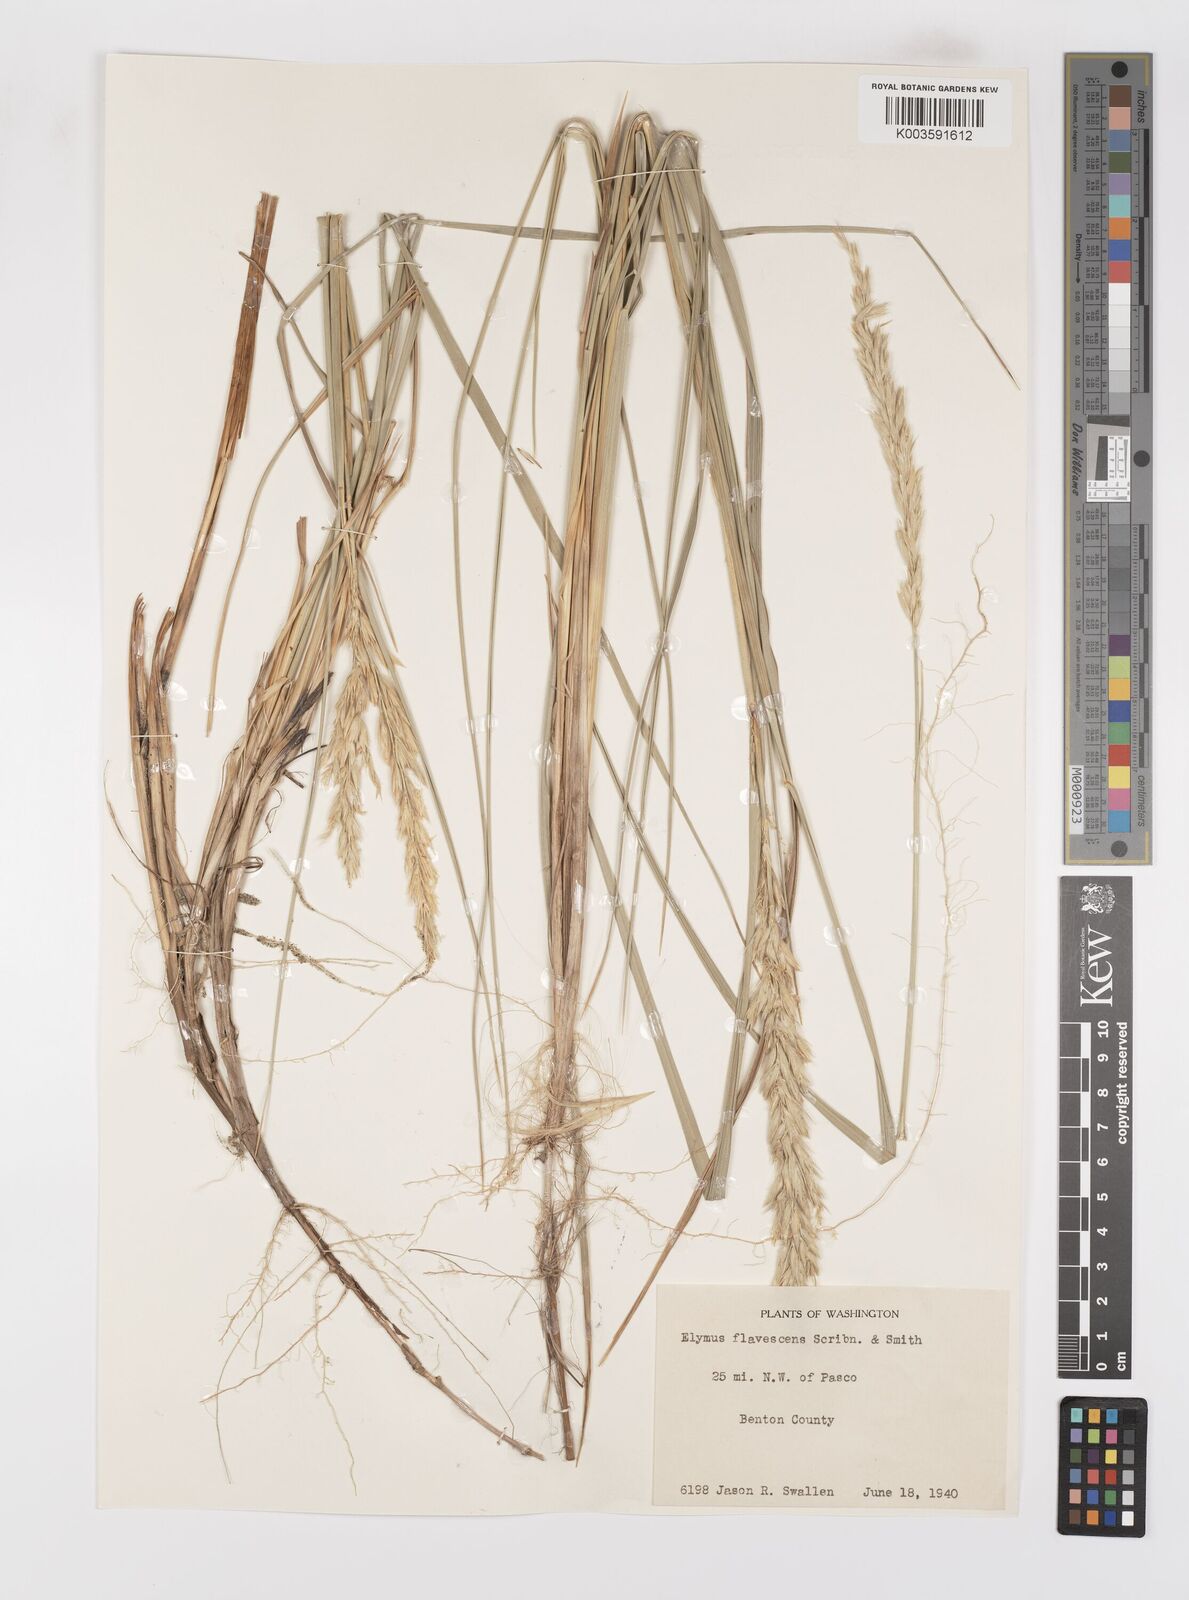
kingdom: Plantae
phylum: Tracheophyta
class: Liliopsida
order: Poales
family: Poaceae
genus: Leymus
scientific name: Leymus flavescens
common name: Yellow wild rye
